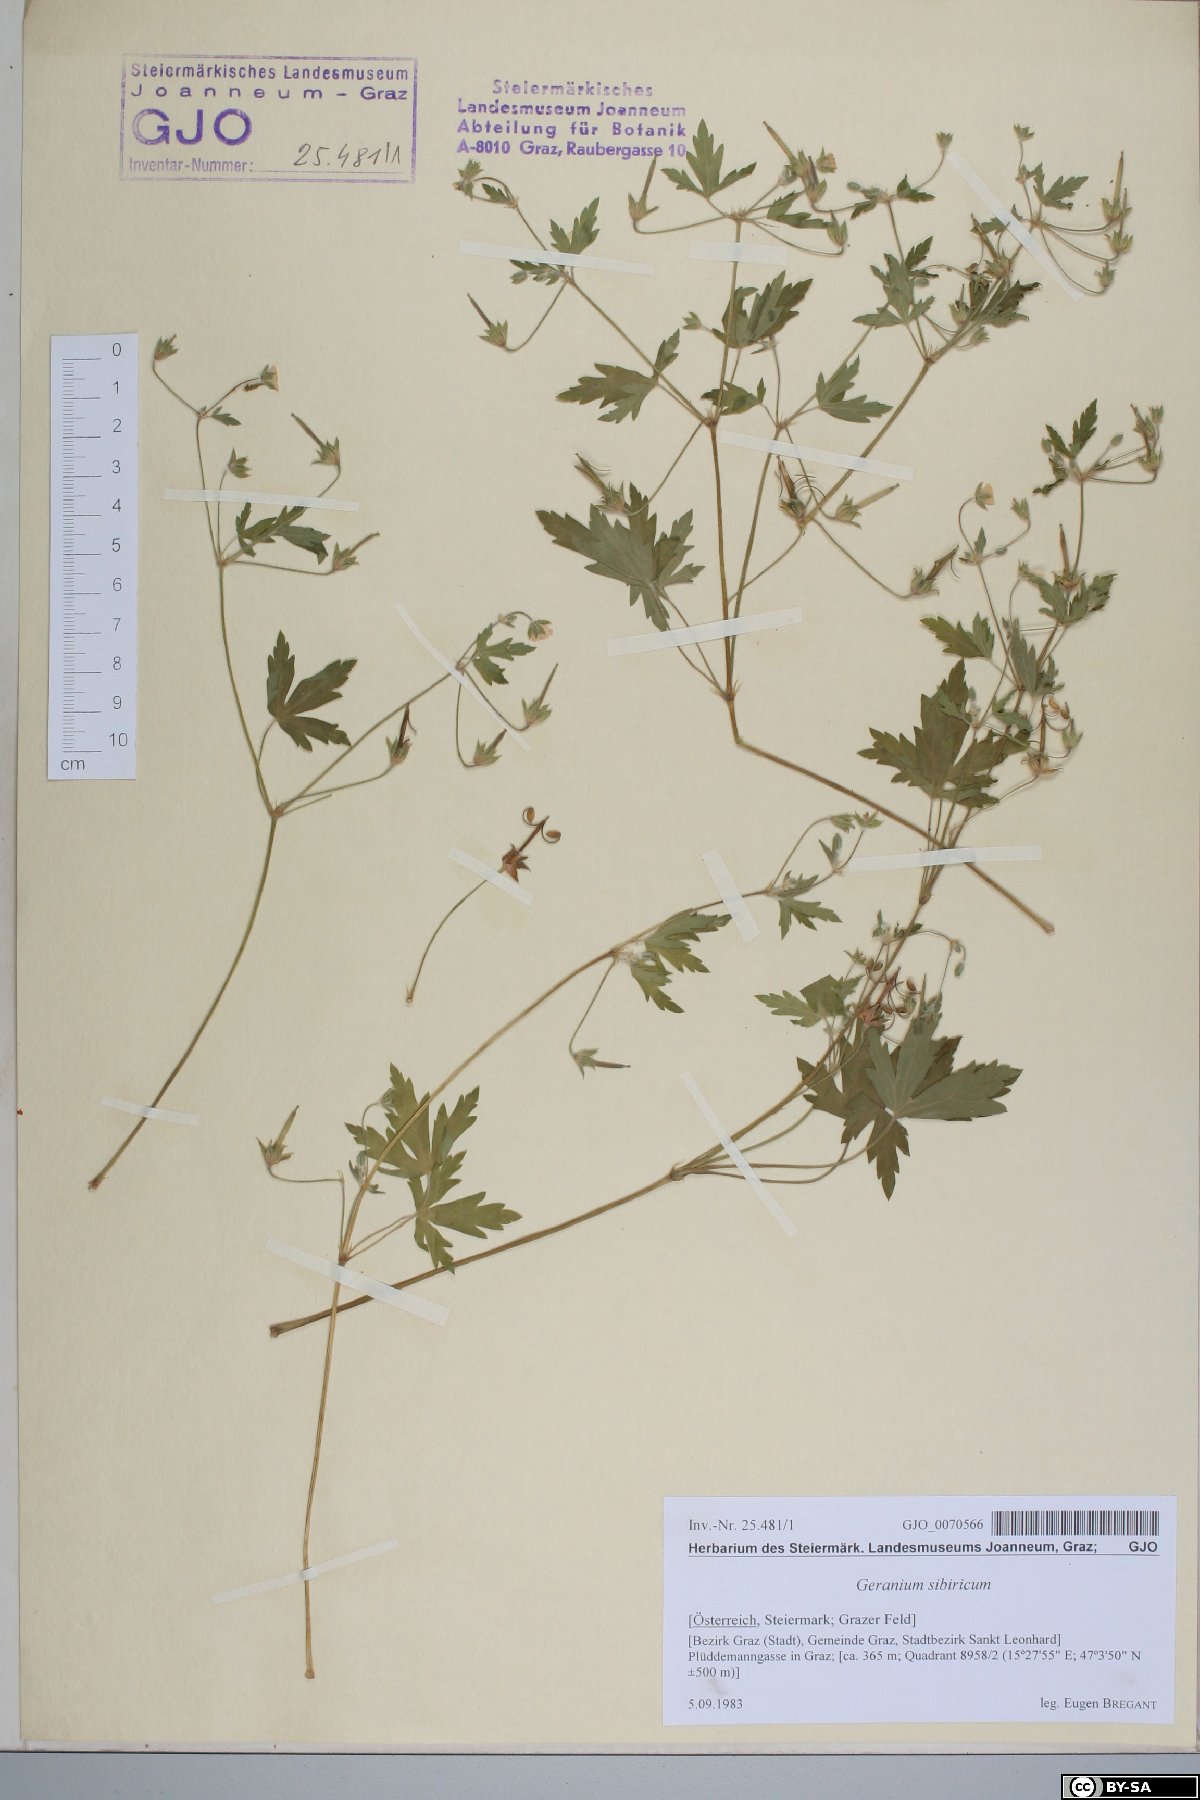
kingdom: Plantae
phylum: Tracheophyta
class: Magnoliopsida
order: Geraniales
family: Geraniaceae
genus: Geranium
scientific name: Geranium sibiricum
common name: Siberian crane's-bill
